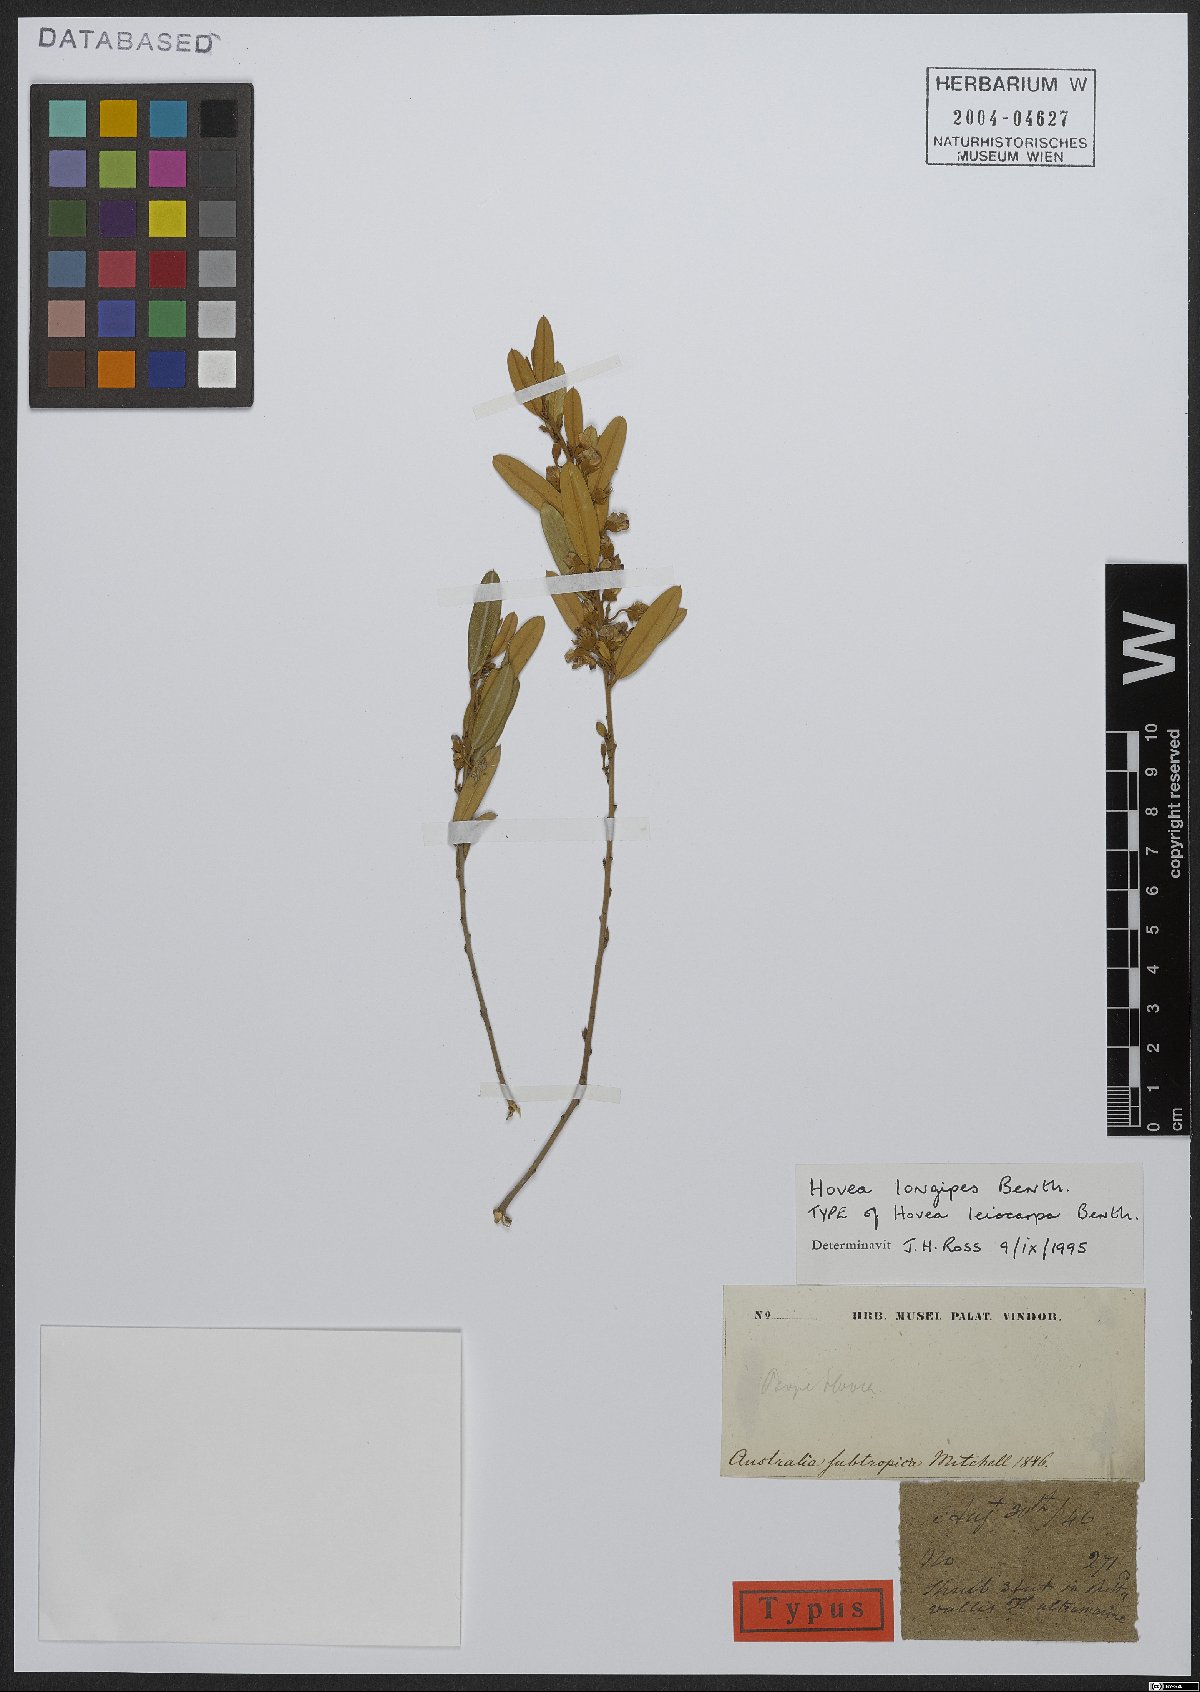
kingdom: Plantae
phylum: Tracheophyta
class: Magnoliopsida
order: Fabales
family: Fabaceae
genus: Hovea
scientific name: Hovea longipes
